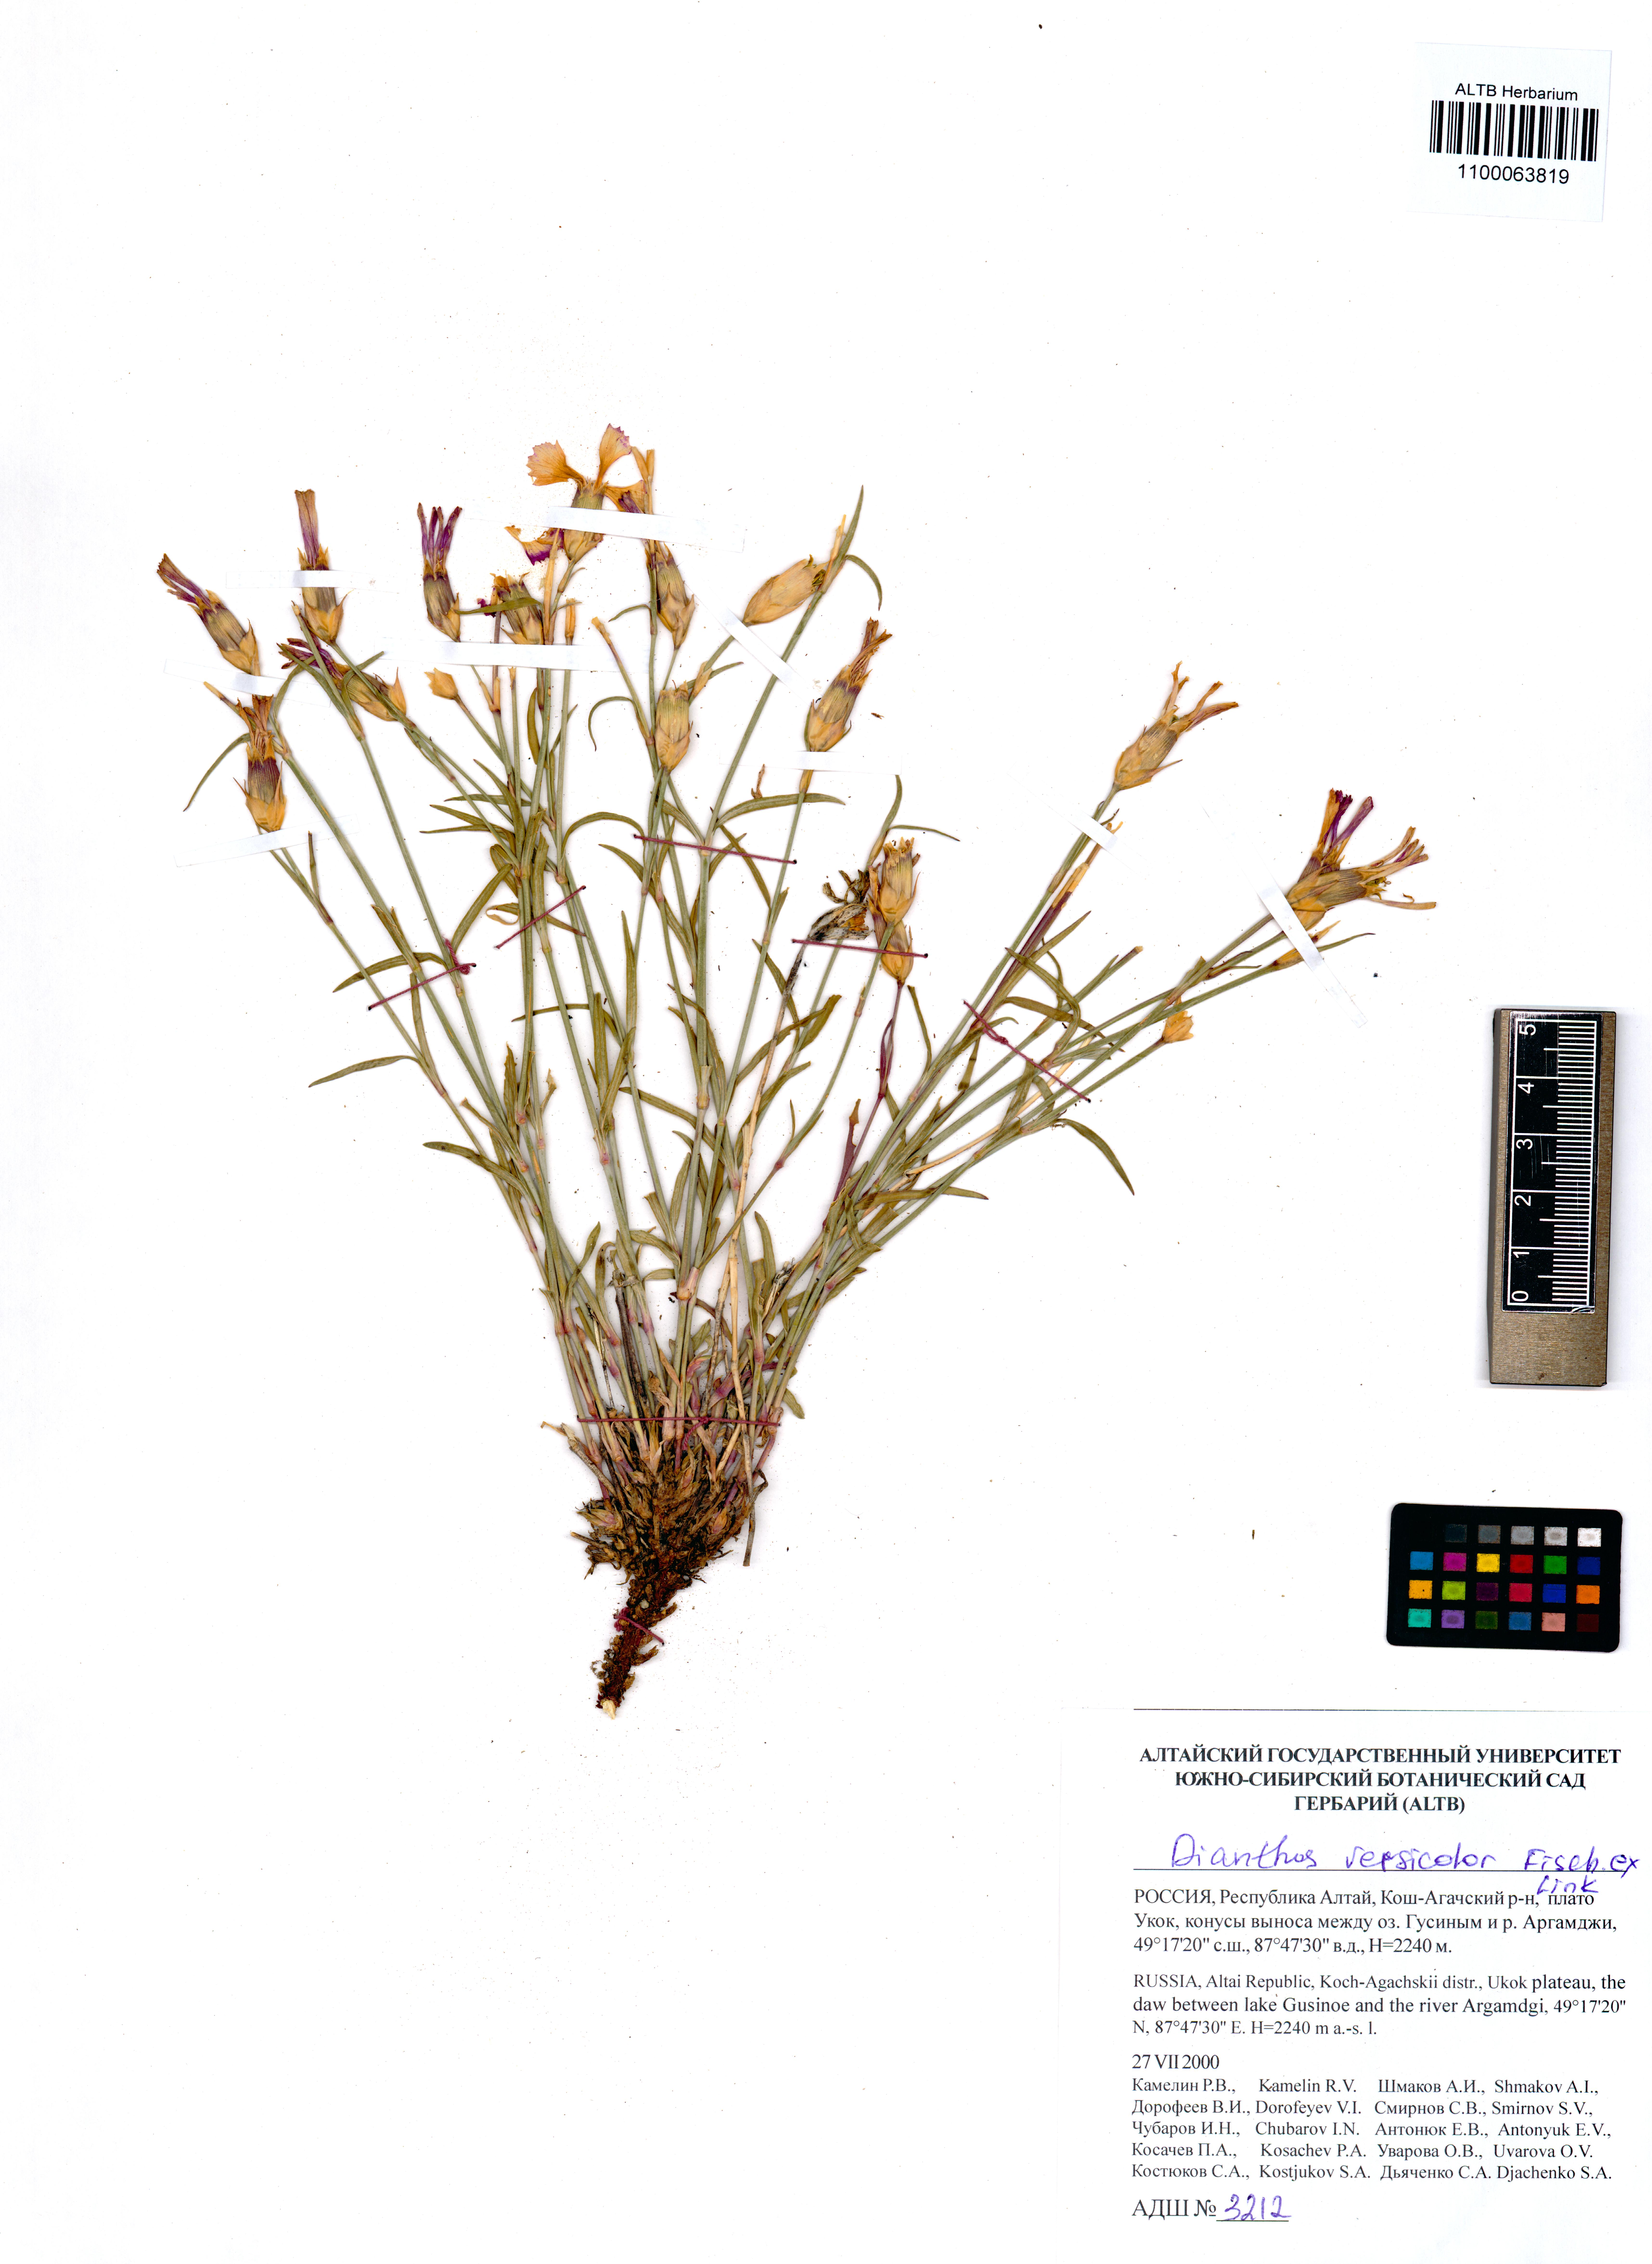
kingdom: Plantae
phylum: Tracheophyta
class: Magnoliopsida
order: Caryophyllales
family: Caryophyllaceae
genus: Dianthus
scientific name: Dianthus chinensis
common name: Rainbow pink
